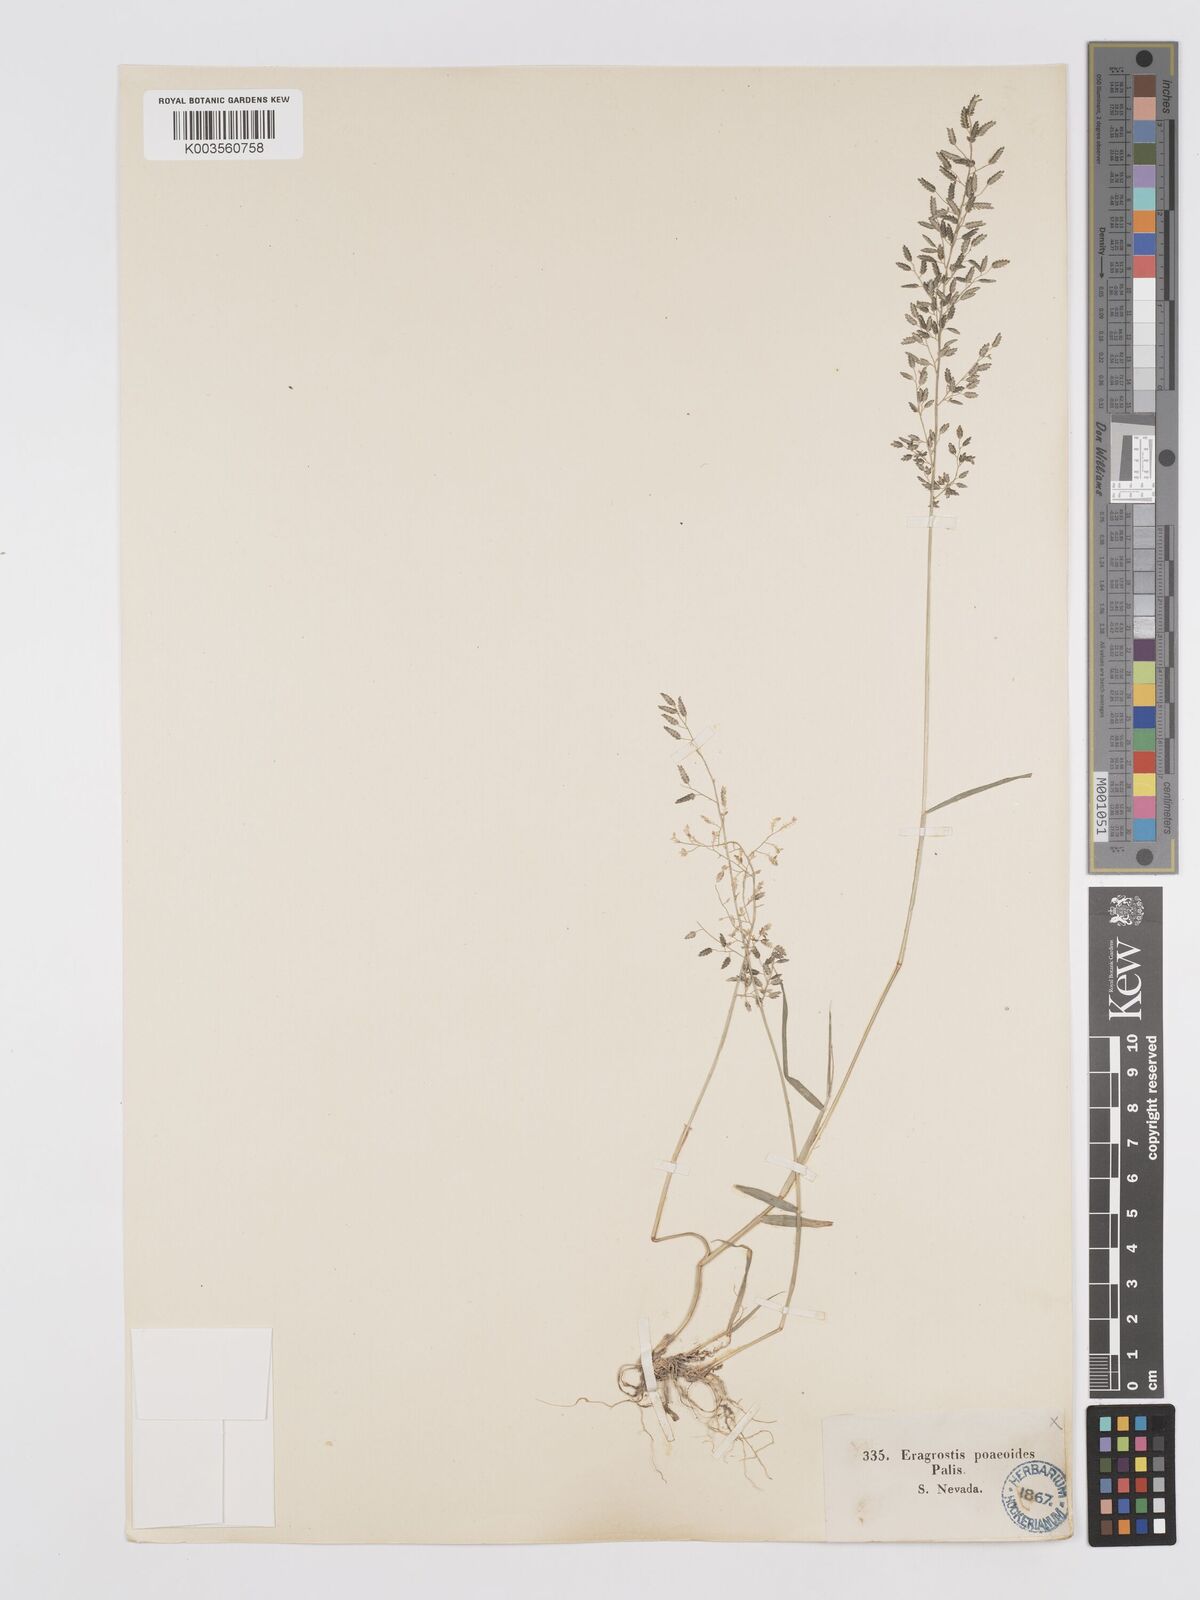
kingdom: Plantae
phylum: Tracheophyta
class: Liliopsida
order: Poales
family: Poaceae
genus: Eragrostis
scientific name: Eragrostis minor
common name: Small love-grass
